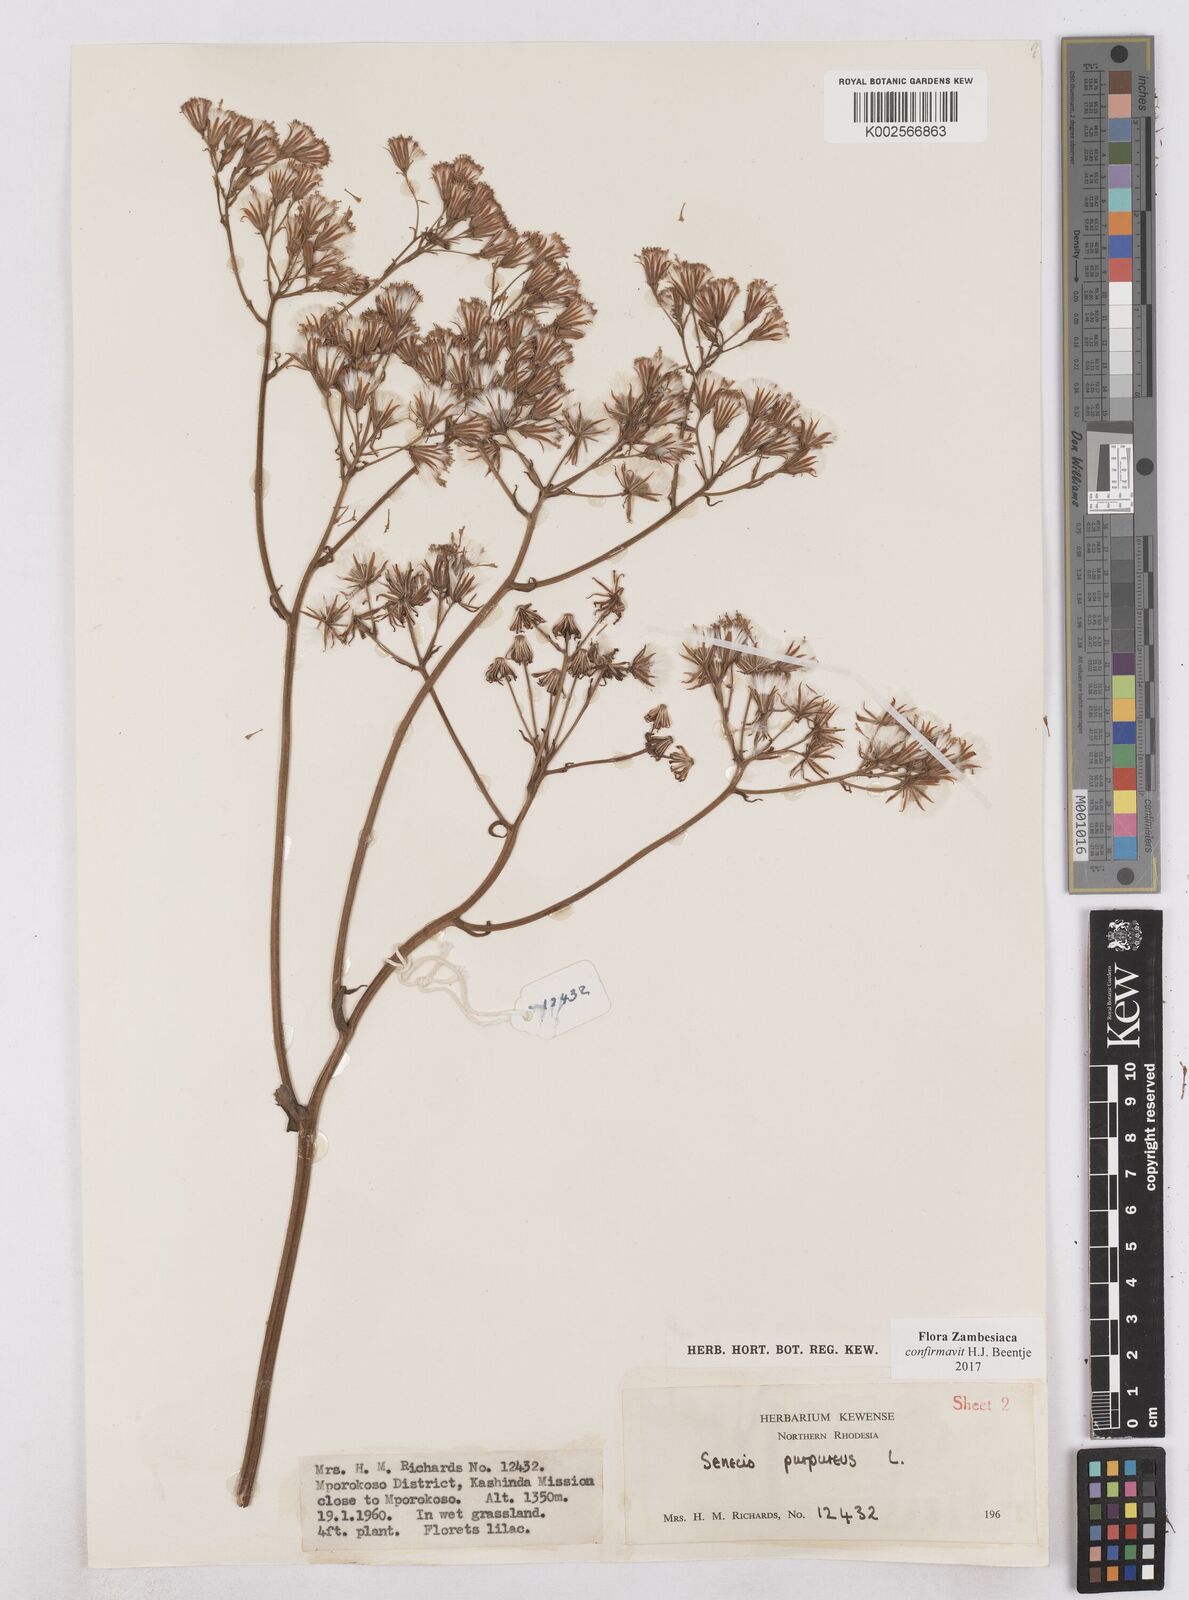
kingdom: Plantae
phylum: Tracheophyta
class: Magnoliopsida
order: Asterales
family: Asteraceae
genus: Senecio
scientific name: Senecio purpureus
